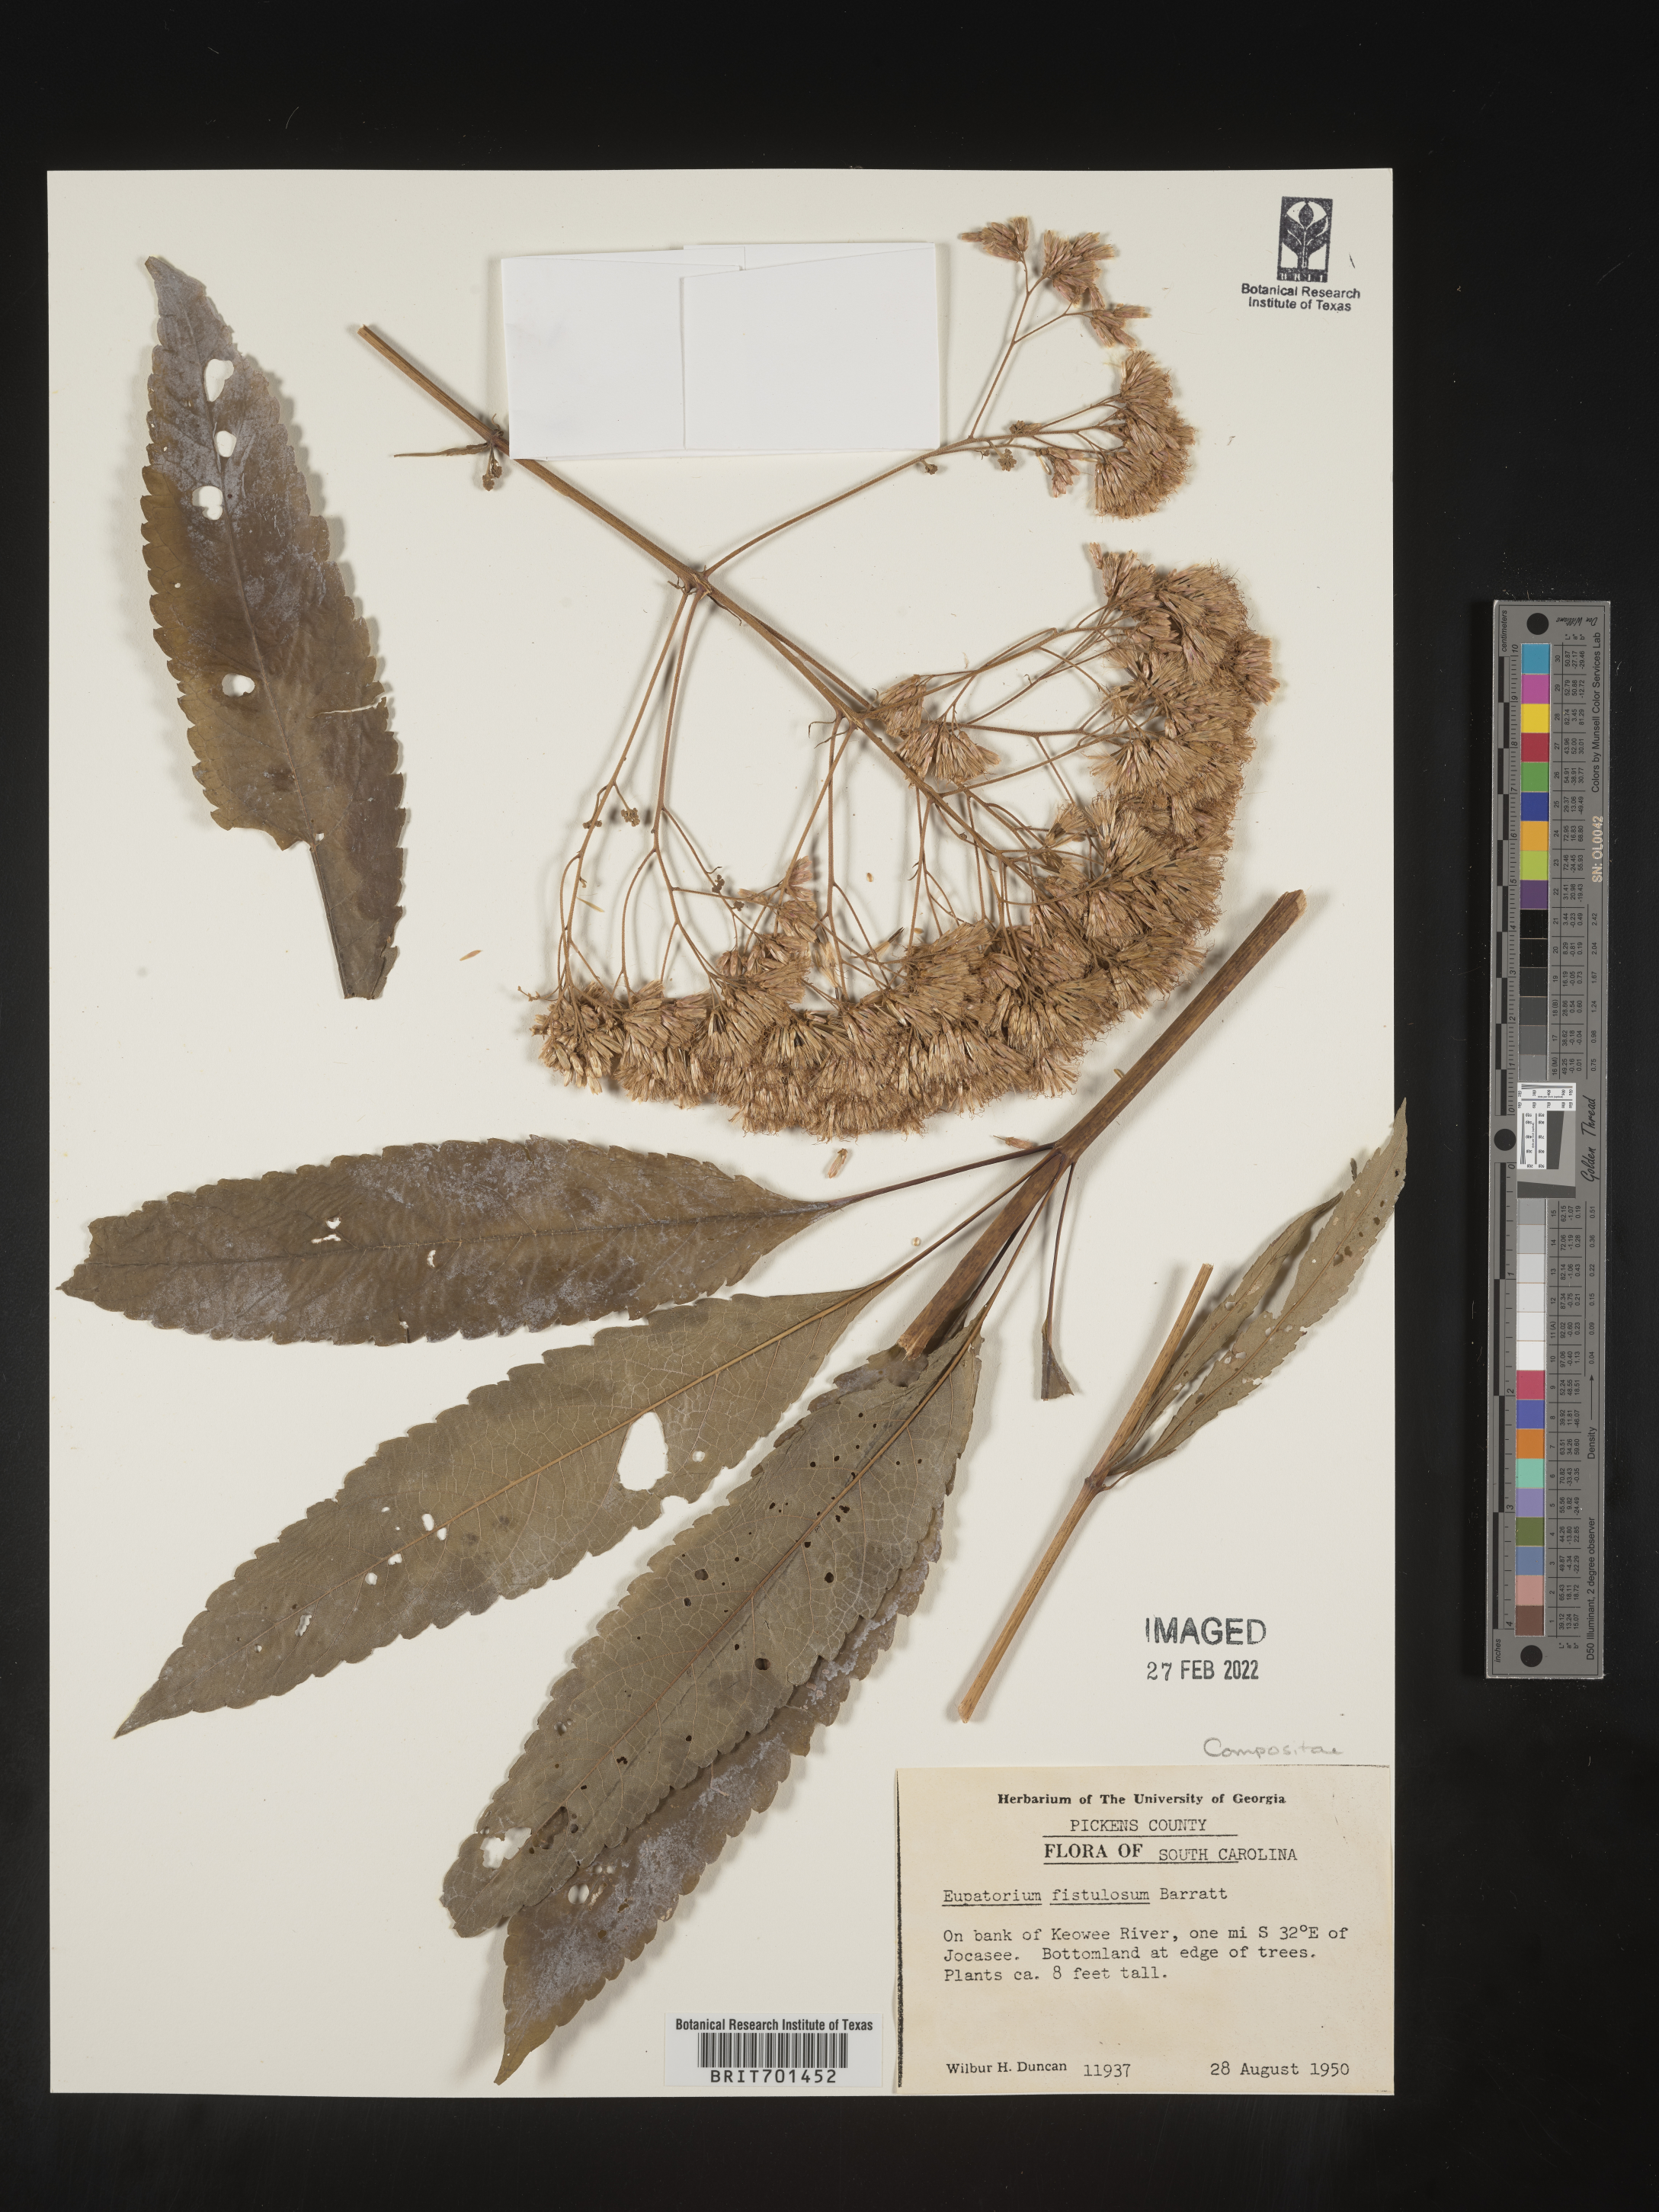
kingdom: Plantae
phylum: Tracheophyta
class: Magnoliopsida
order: Asterales
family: Asteraceae
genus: Eutrochium
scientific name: Eutrochium fistulosum
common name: Trumpetweed
